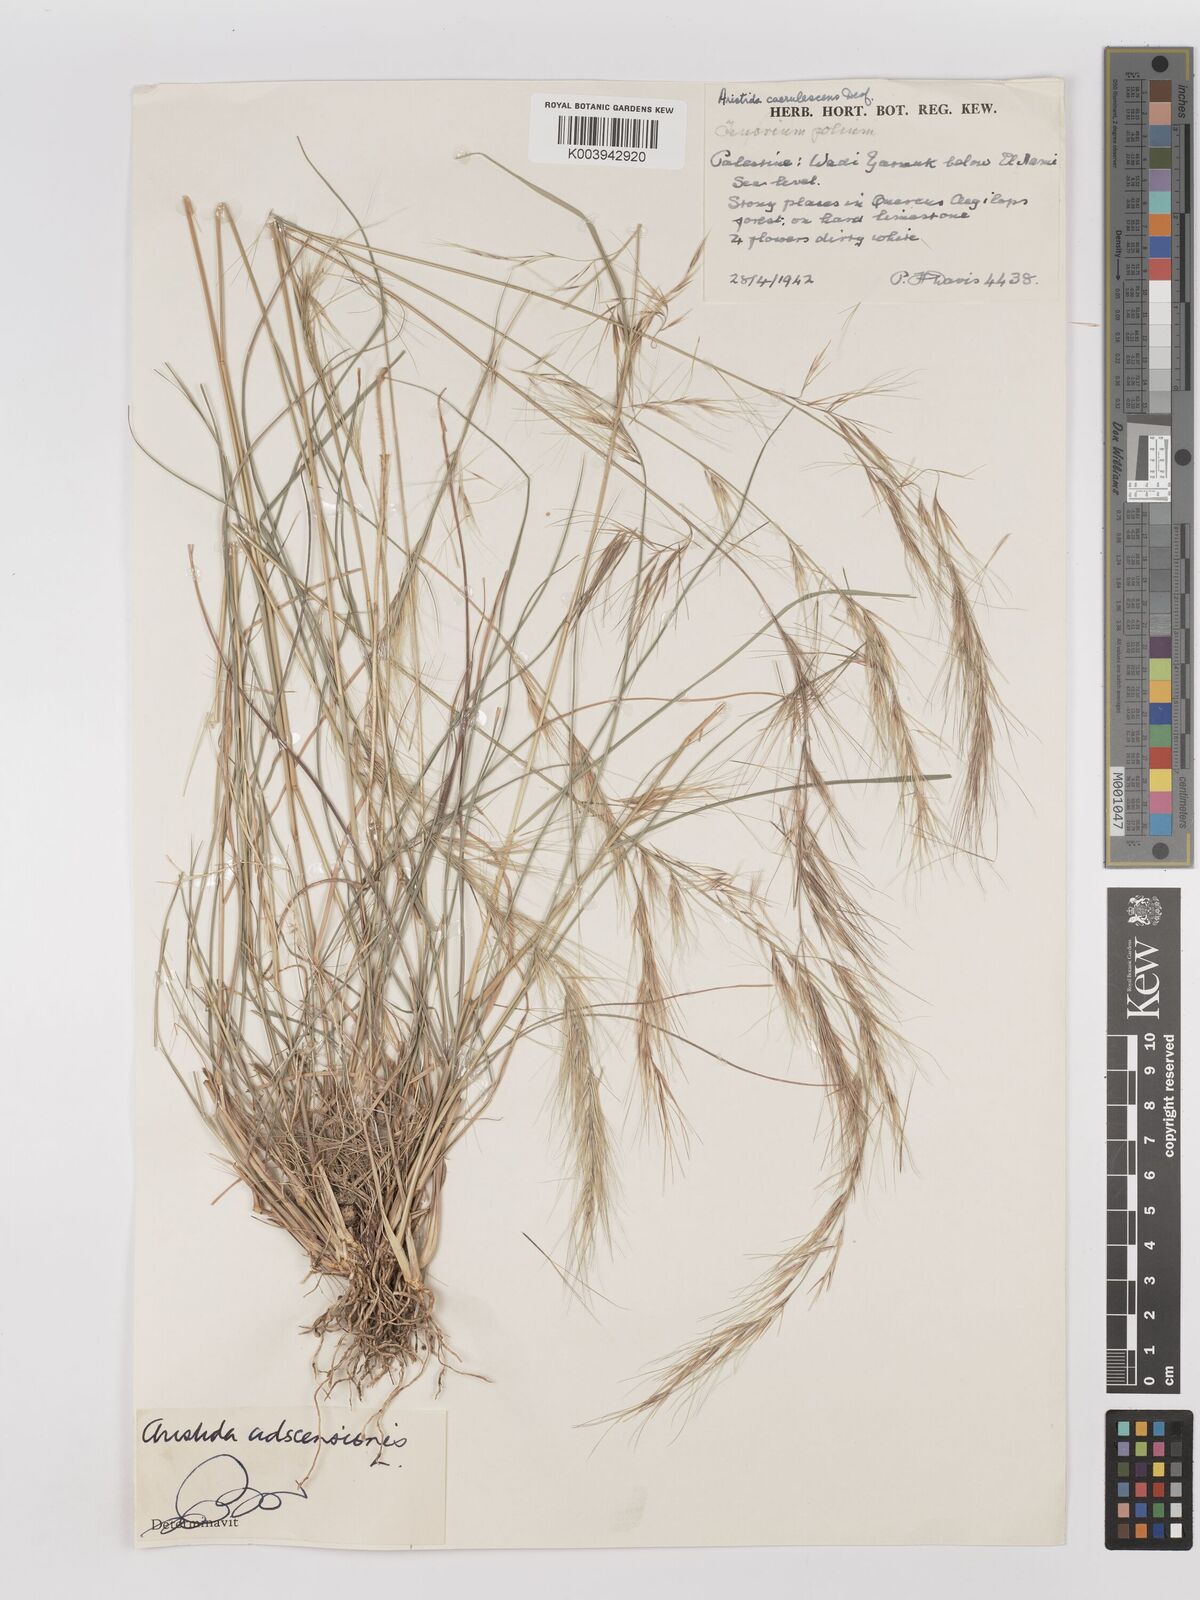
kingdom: Plantae
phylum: Tracheophyta
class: Liliopsida
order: Poales
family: Poaceae
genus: Aristida
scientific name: Aristida adscensionis
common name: Sixweeks threeawn
